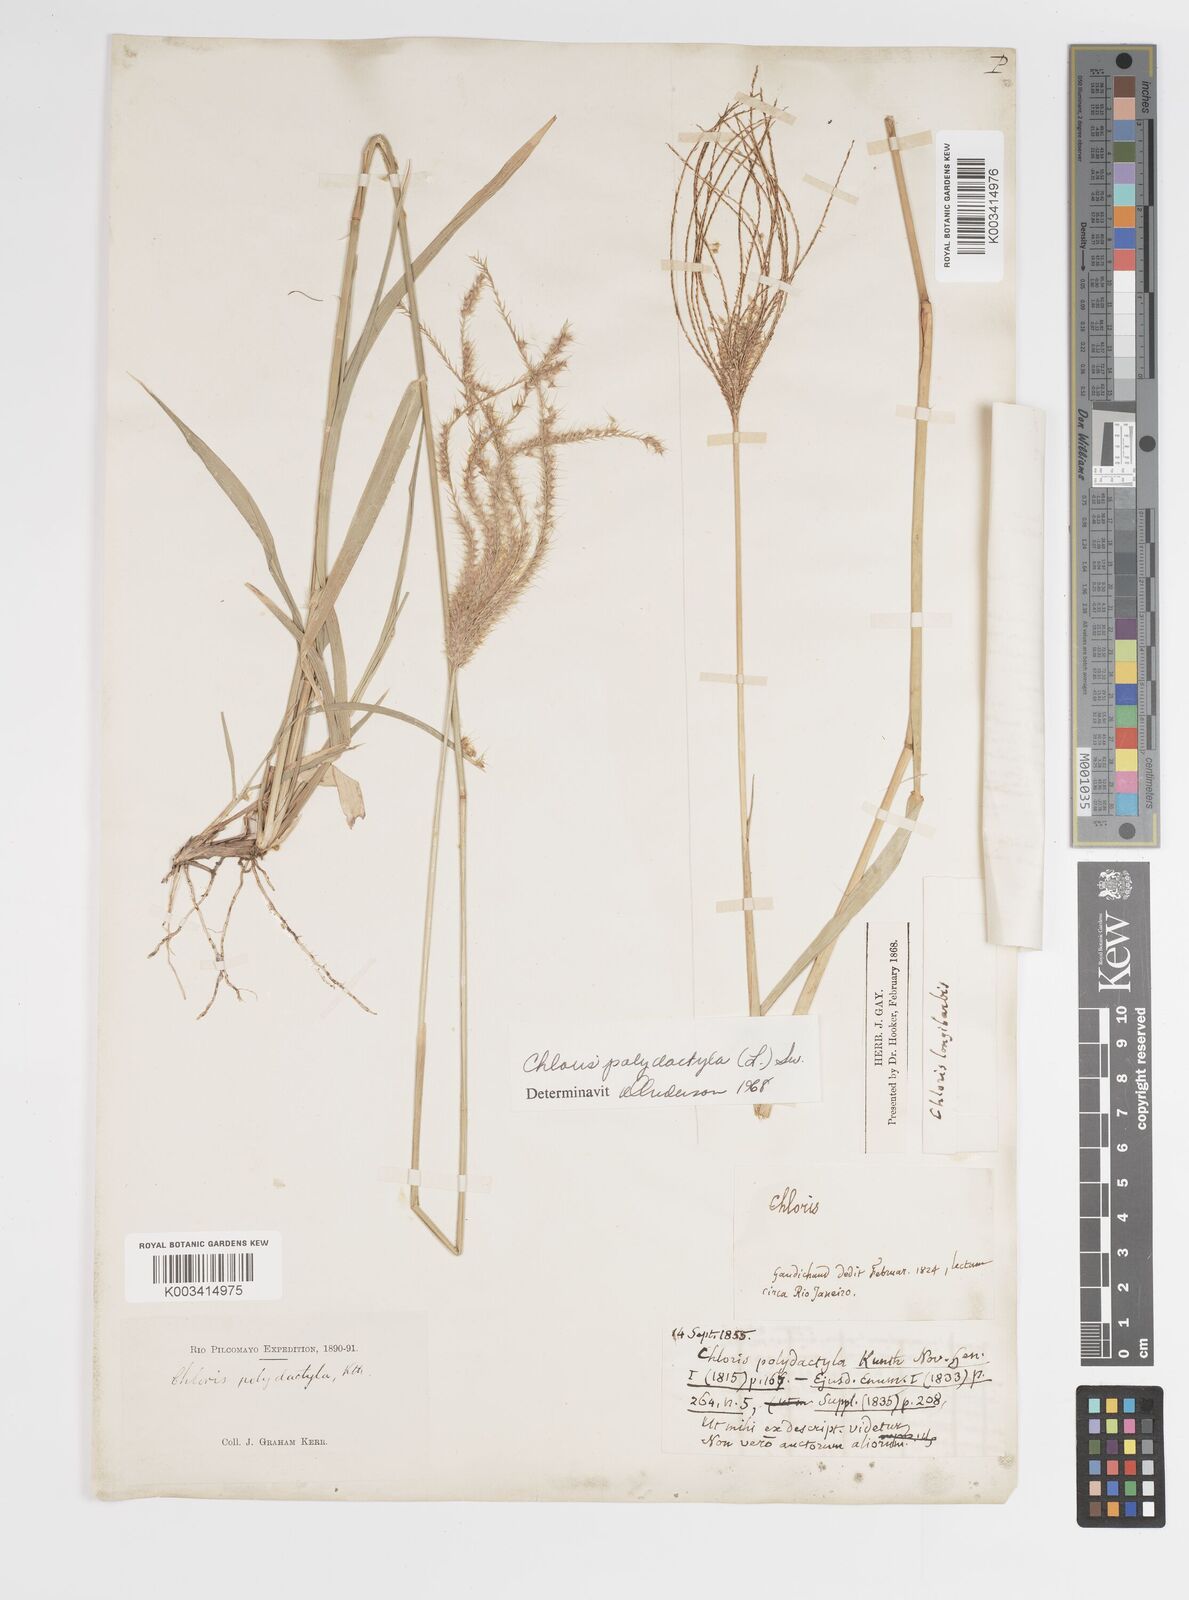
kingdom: Plantae
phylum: Tracheophyta
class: Liliopsida
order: Poales
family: Poaceae
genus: Stapfochloa
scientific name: Stapfochloa elata
